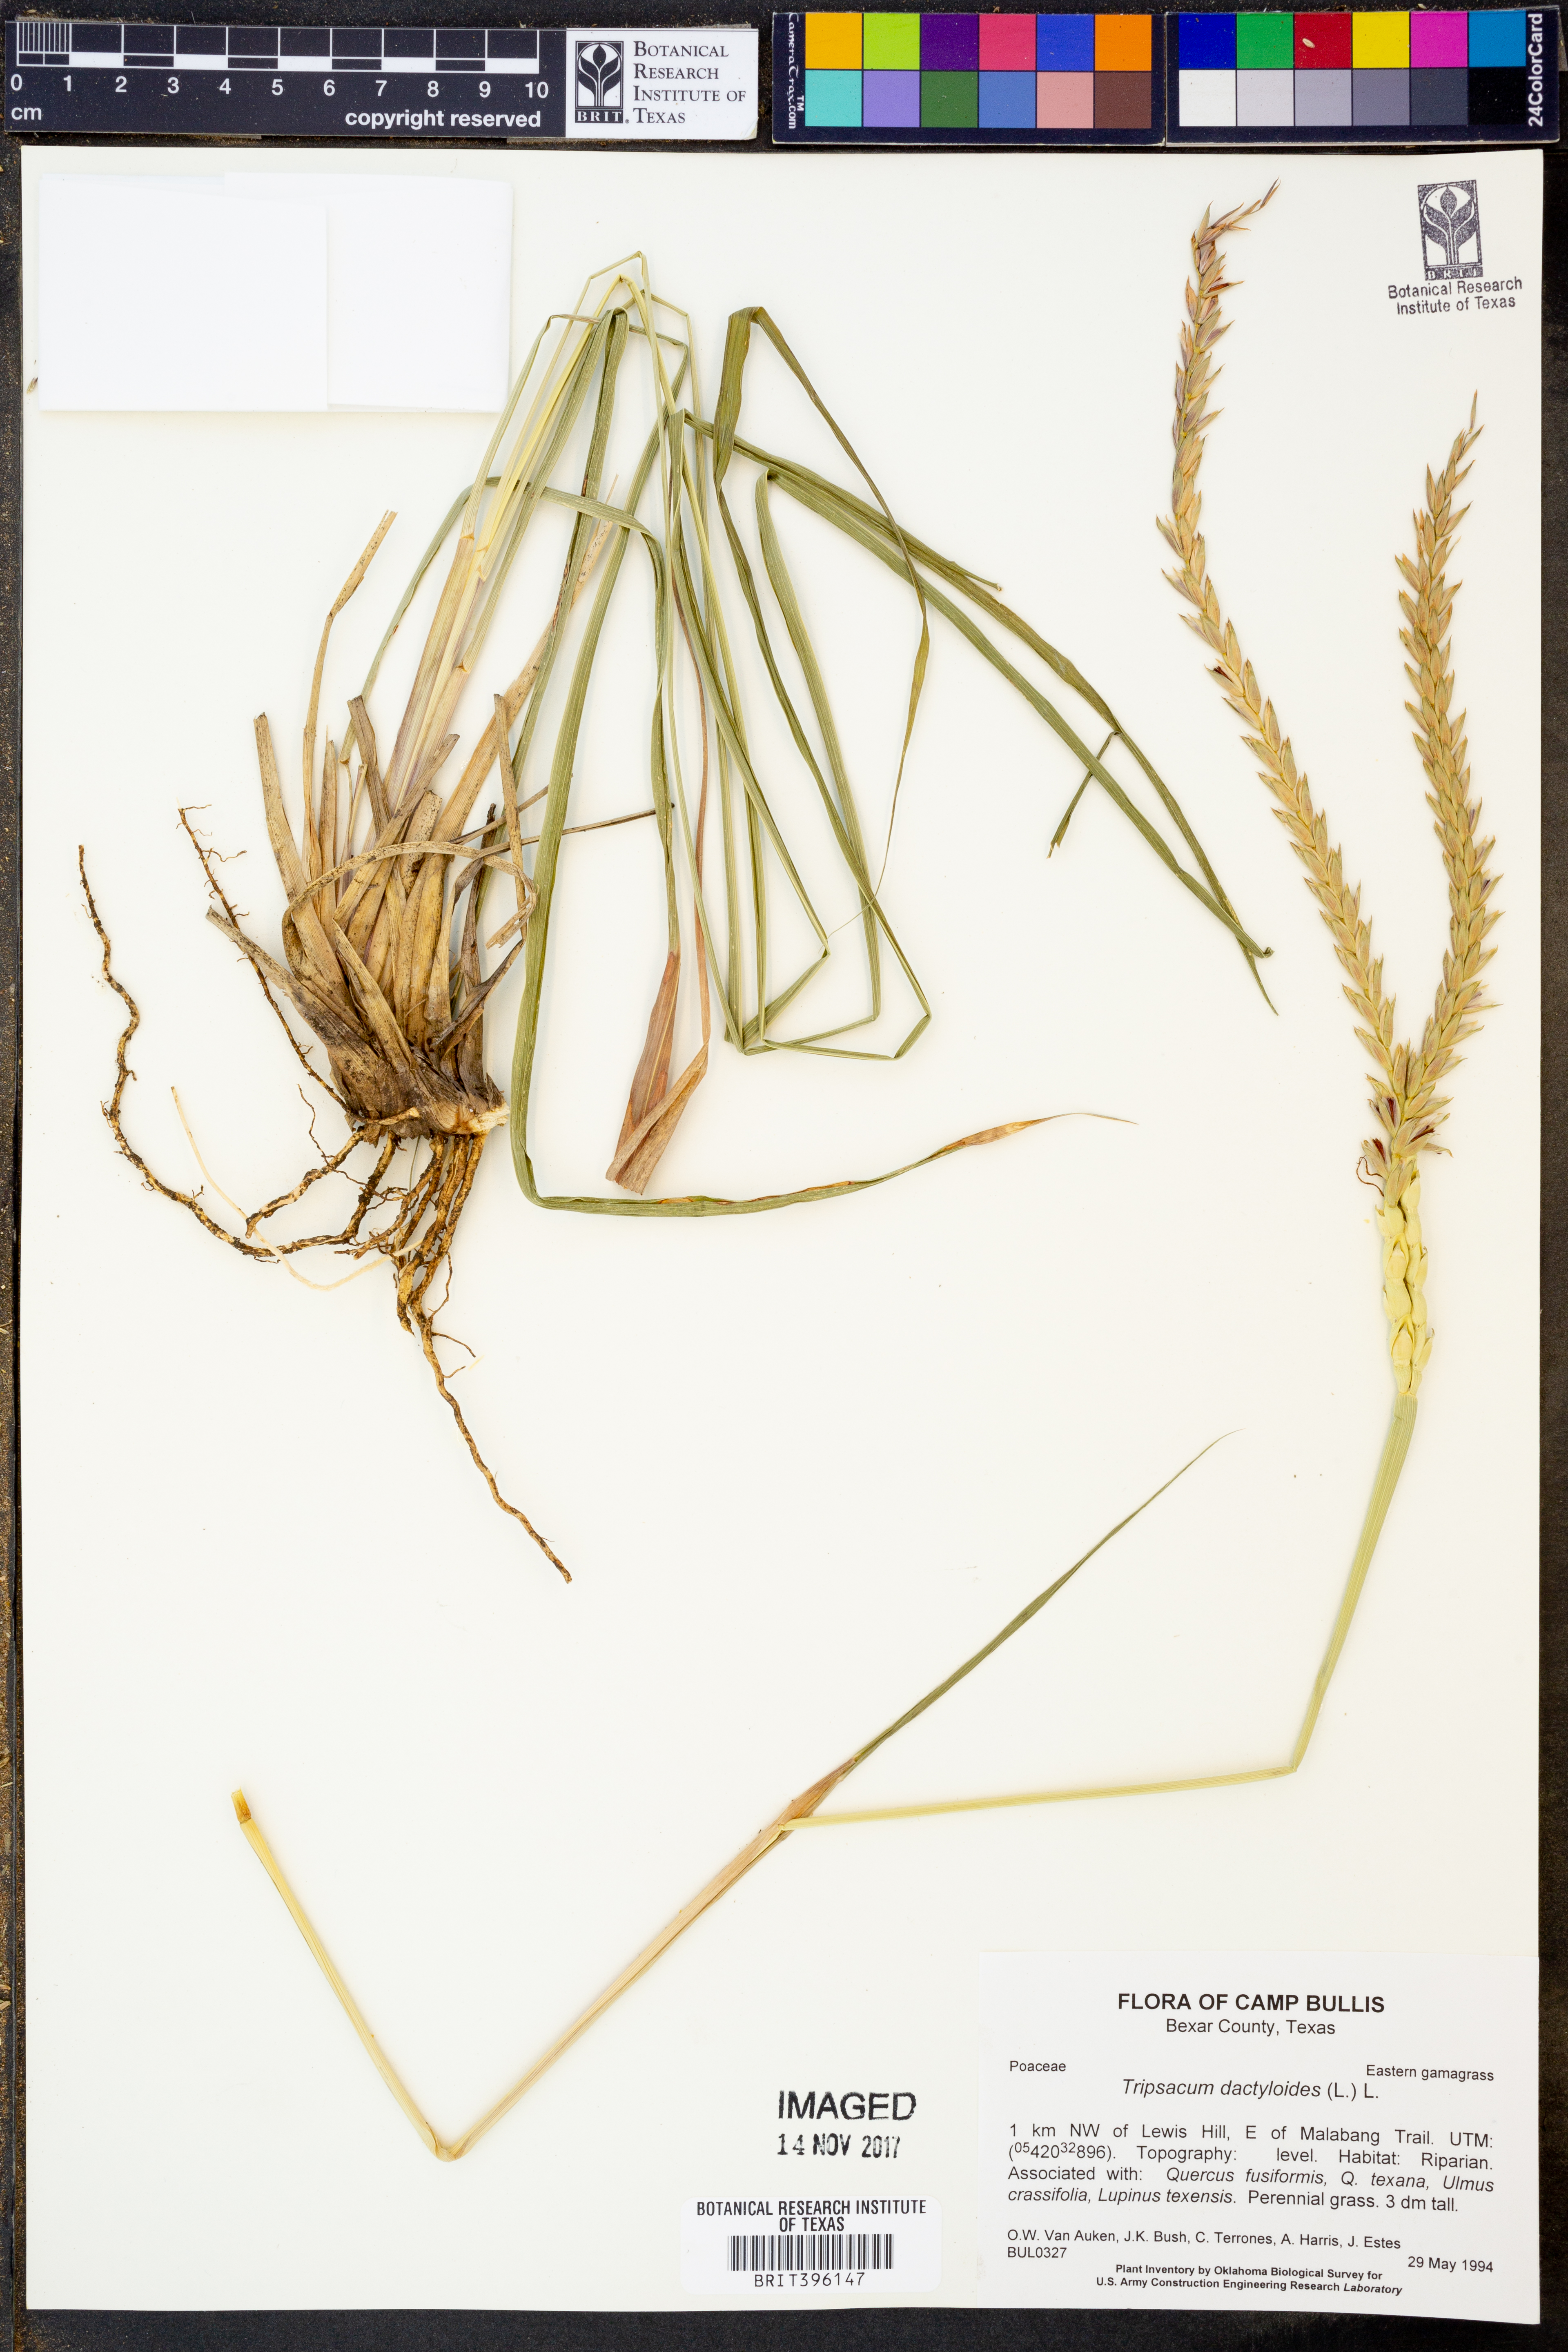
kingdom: Plantae
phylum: Tracheophyta
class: Liliopsida
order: Poales
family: Poaceae
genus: Tripsacum
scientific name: Tripsacum dactyloides
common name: Buffalo-grass
